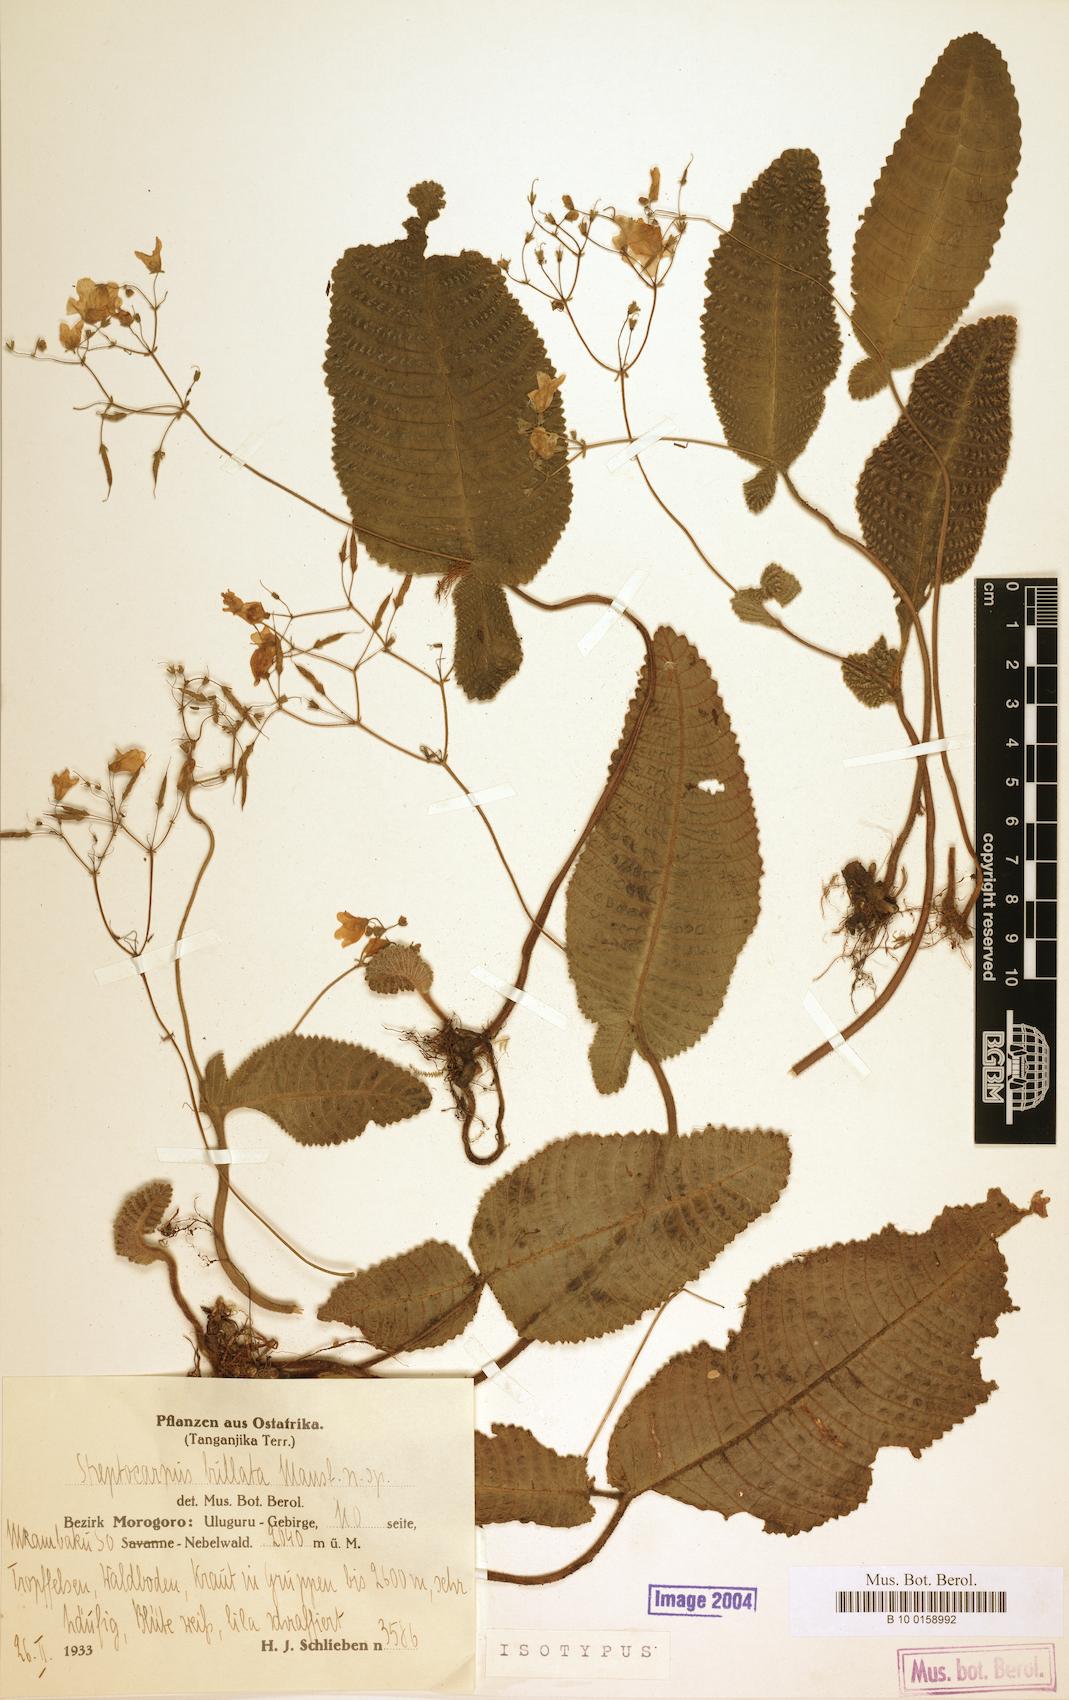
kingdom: Plantae
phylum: Tracheophyta
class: Magnoliopsida
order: Lamiales
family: Gesneriaceae
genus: Streptocarpus
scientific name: Streptocarpus bullatus
